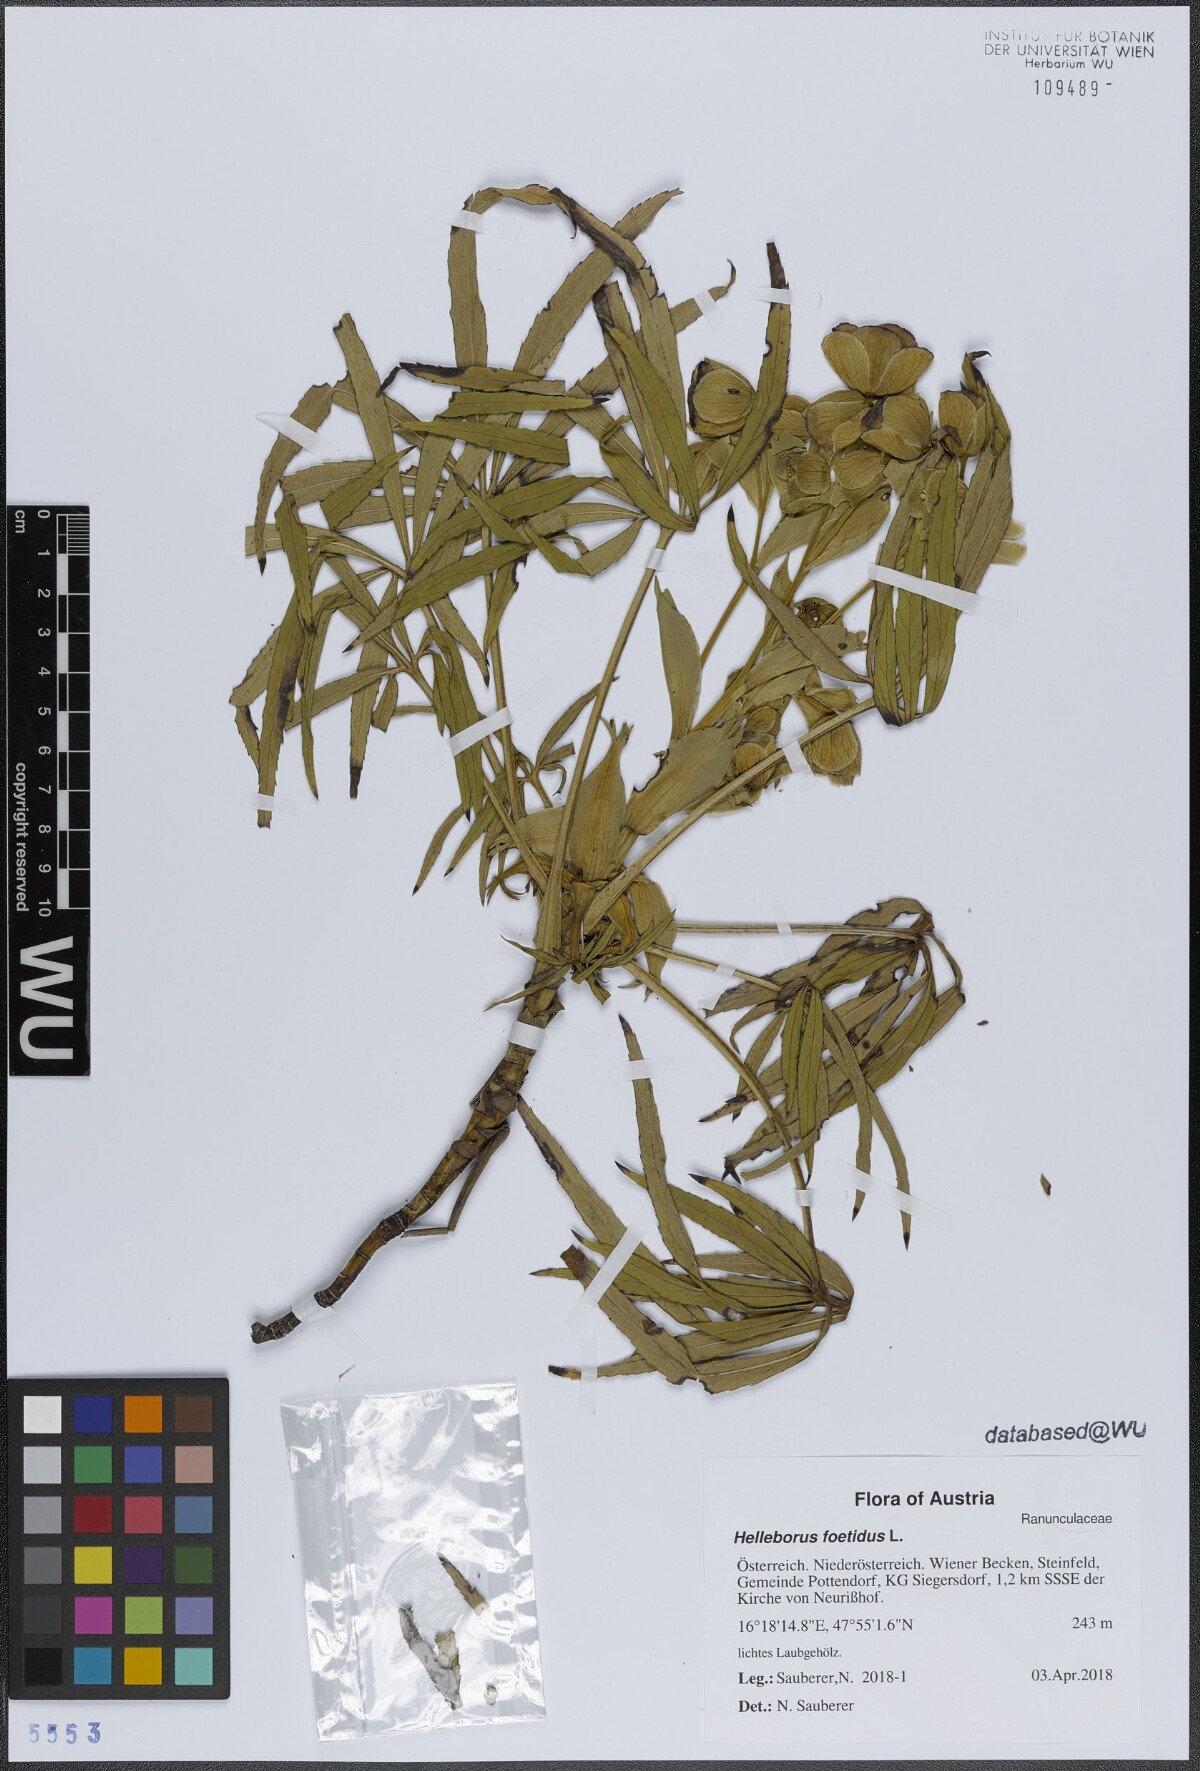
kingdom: Plantae
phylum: Tracheophyta
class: Magnoliopsida
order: Ranunculales
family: Ranunculaceae
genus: Helleborus
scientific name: Helleborus foetidus
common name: Stinking hellebore
